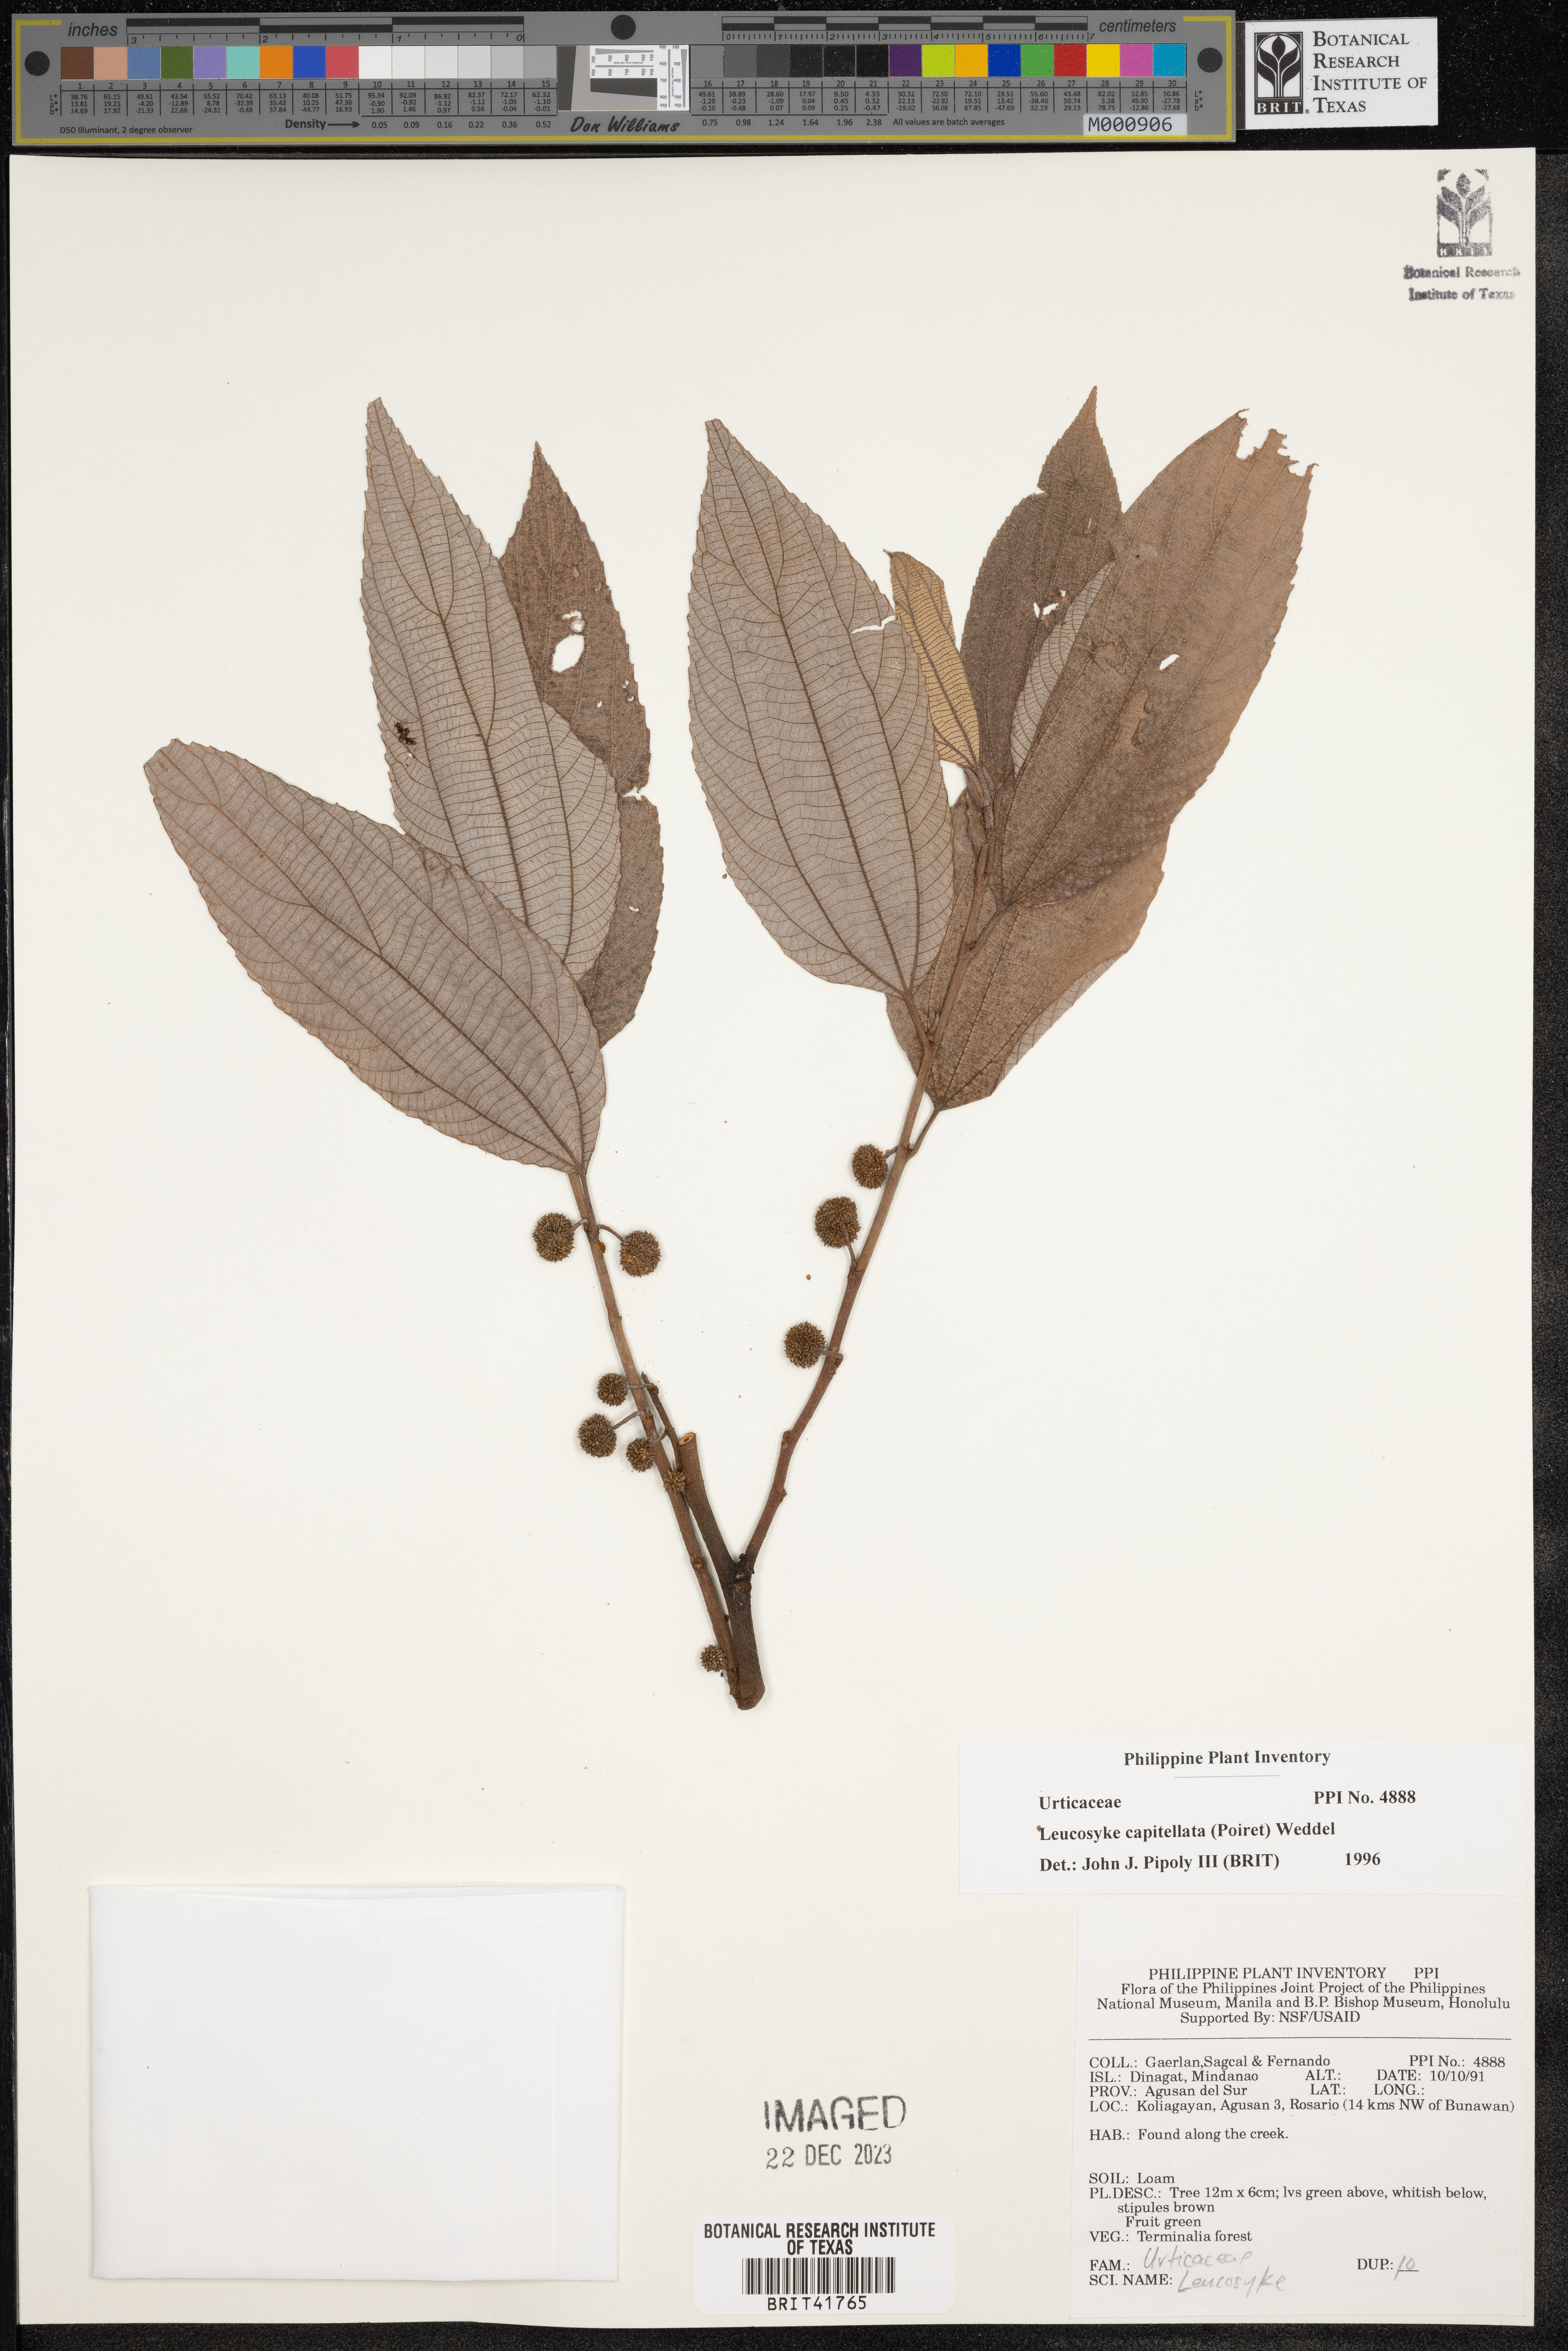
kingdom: Plantae
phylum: Tracheophyta
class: Magnoliopsida
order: Rosales
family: Urticaceae
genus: Leucosyke
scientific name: Leucosyke capitellata
